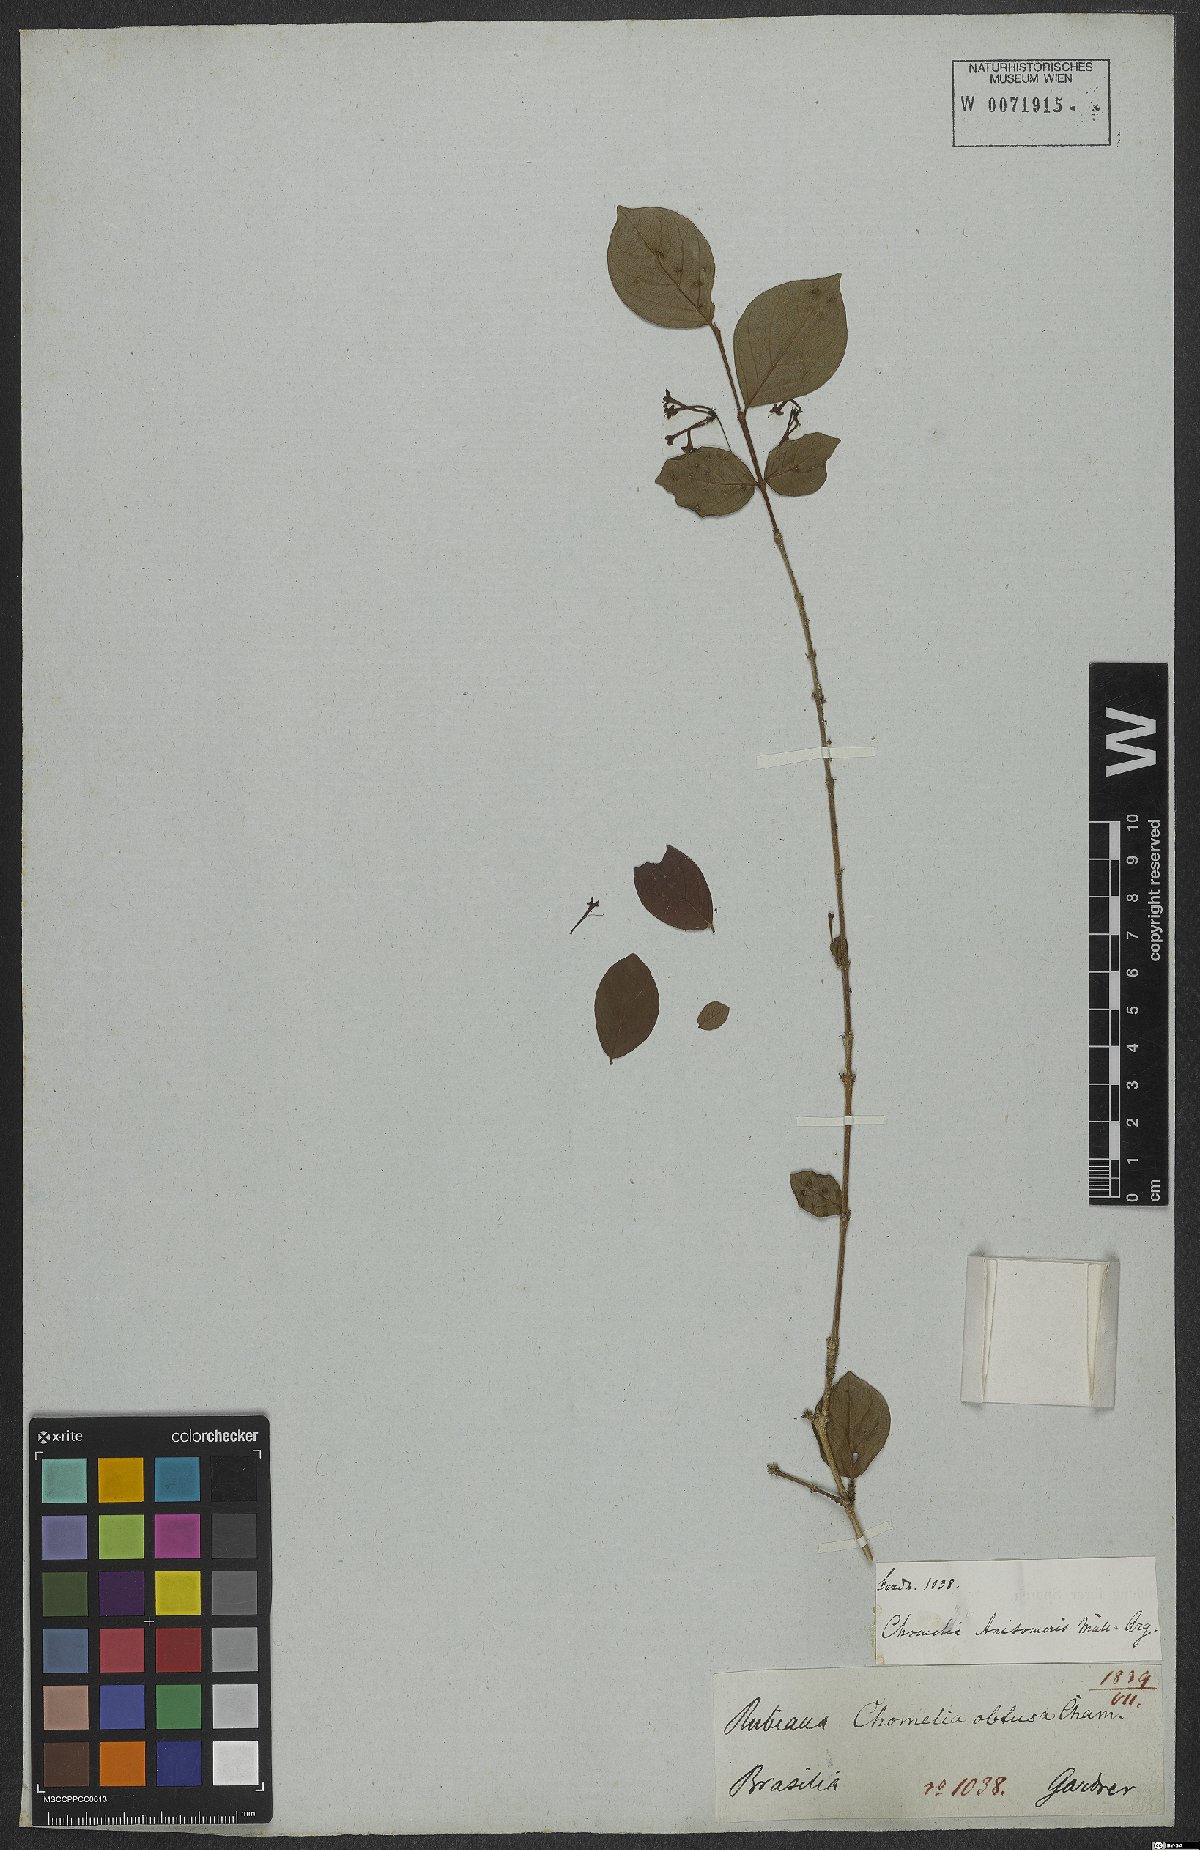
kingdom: Plantae
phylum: Tracheophyta
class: Magnoliopsida
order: Gentianales
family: Rubiaceae
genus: Chomelia
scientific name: Chomelia anisomeris
